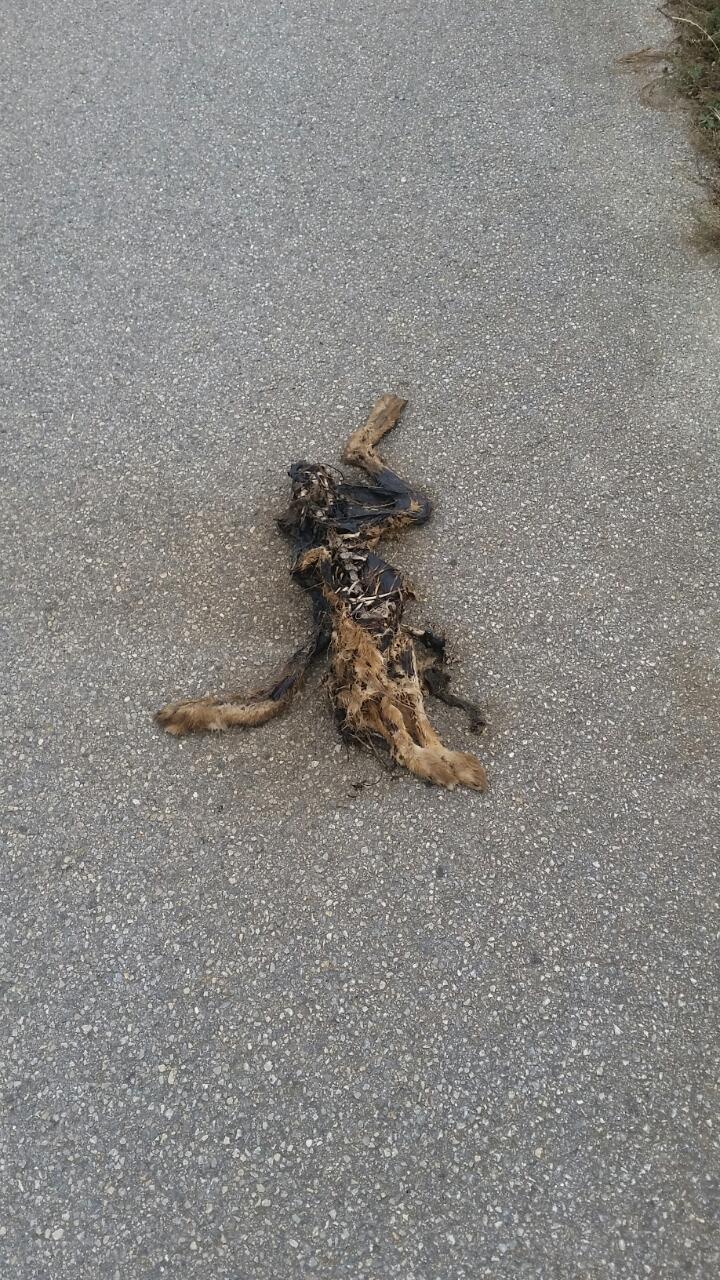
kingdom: Animalia
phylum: Chordata
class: Mammalia
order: Lagomorpha
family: Leporidae
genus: Lepus
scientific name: Lepus europaeus
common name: European hare
